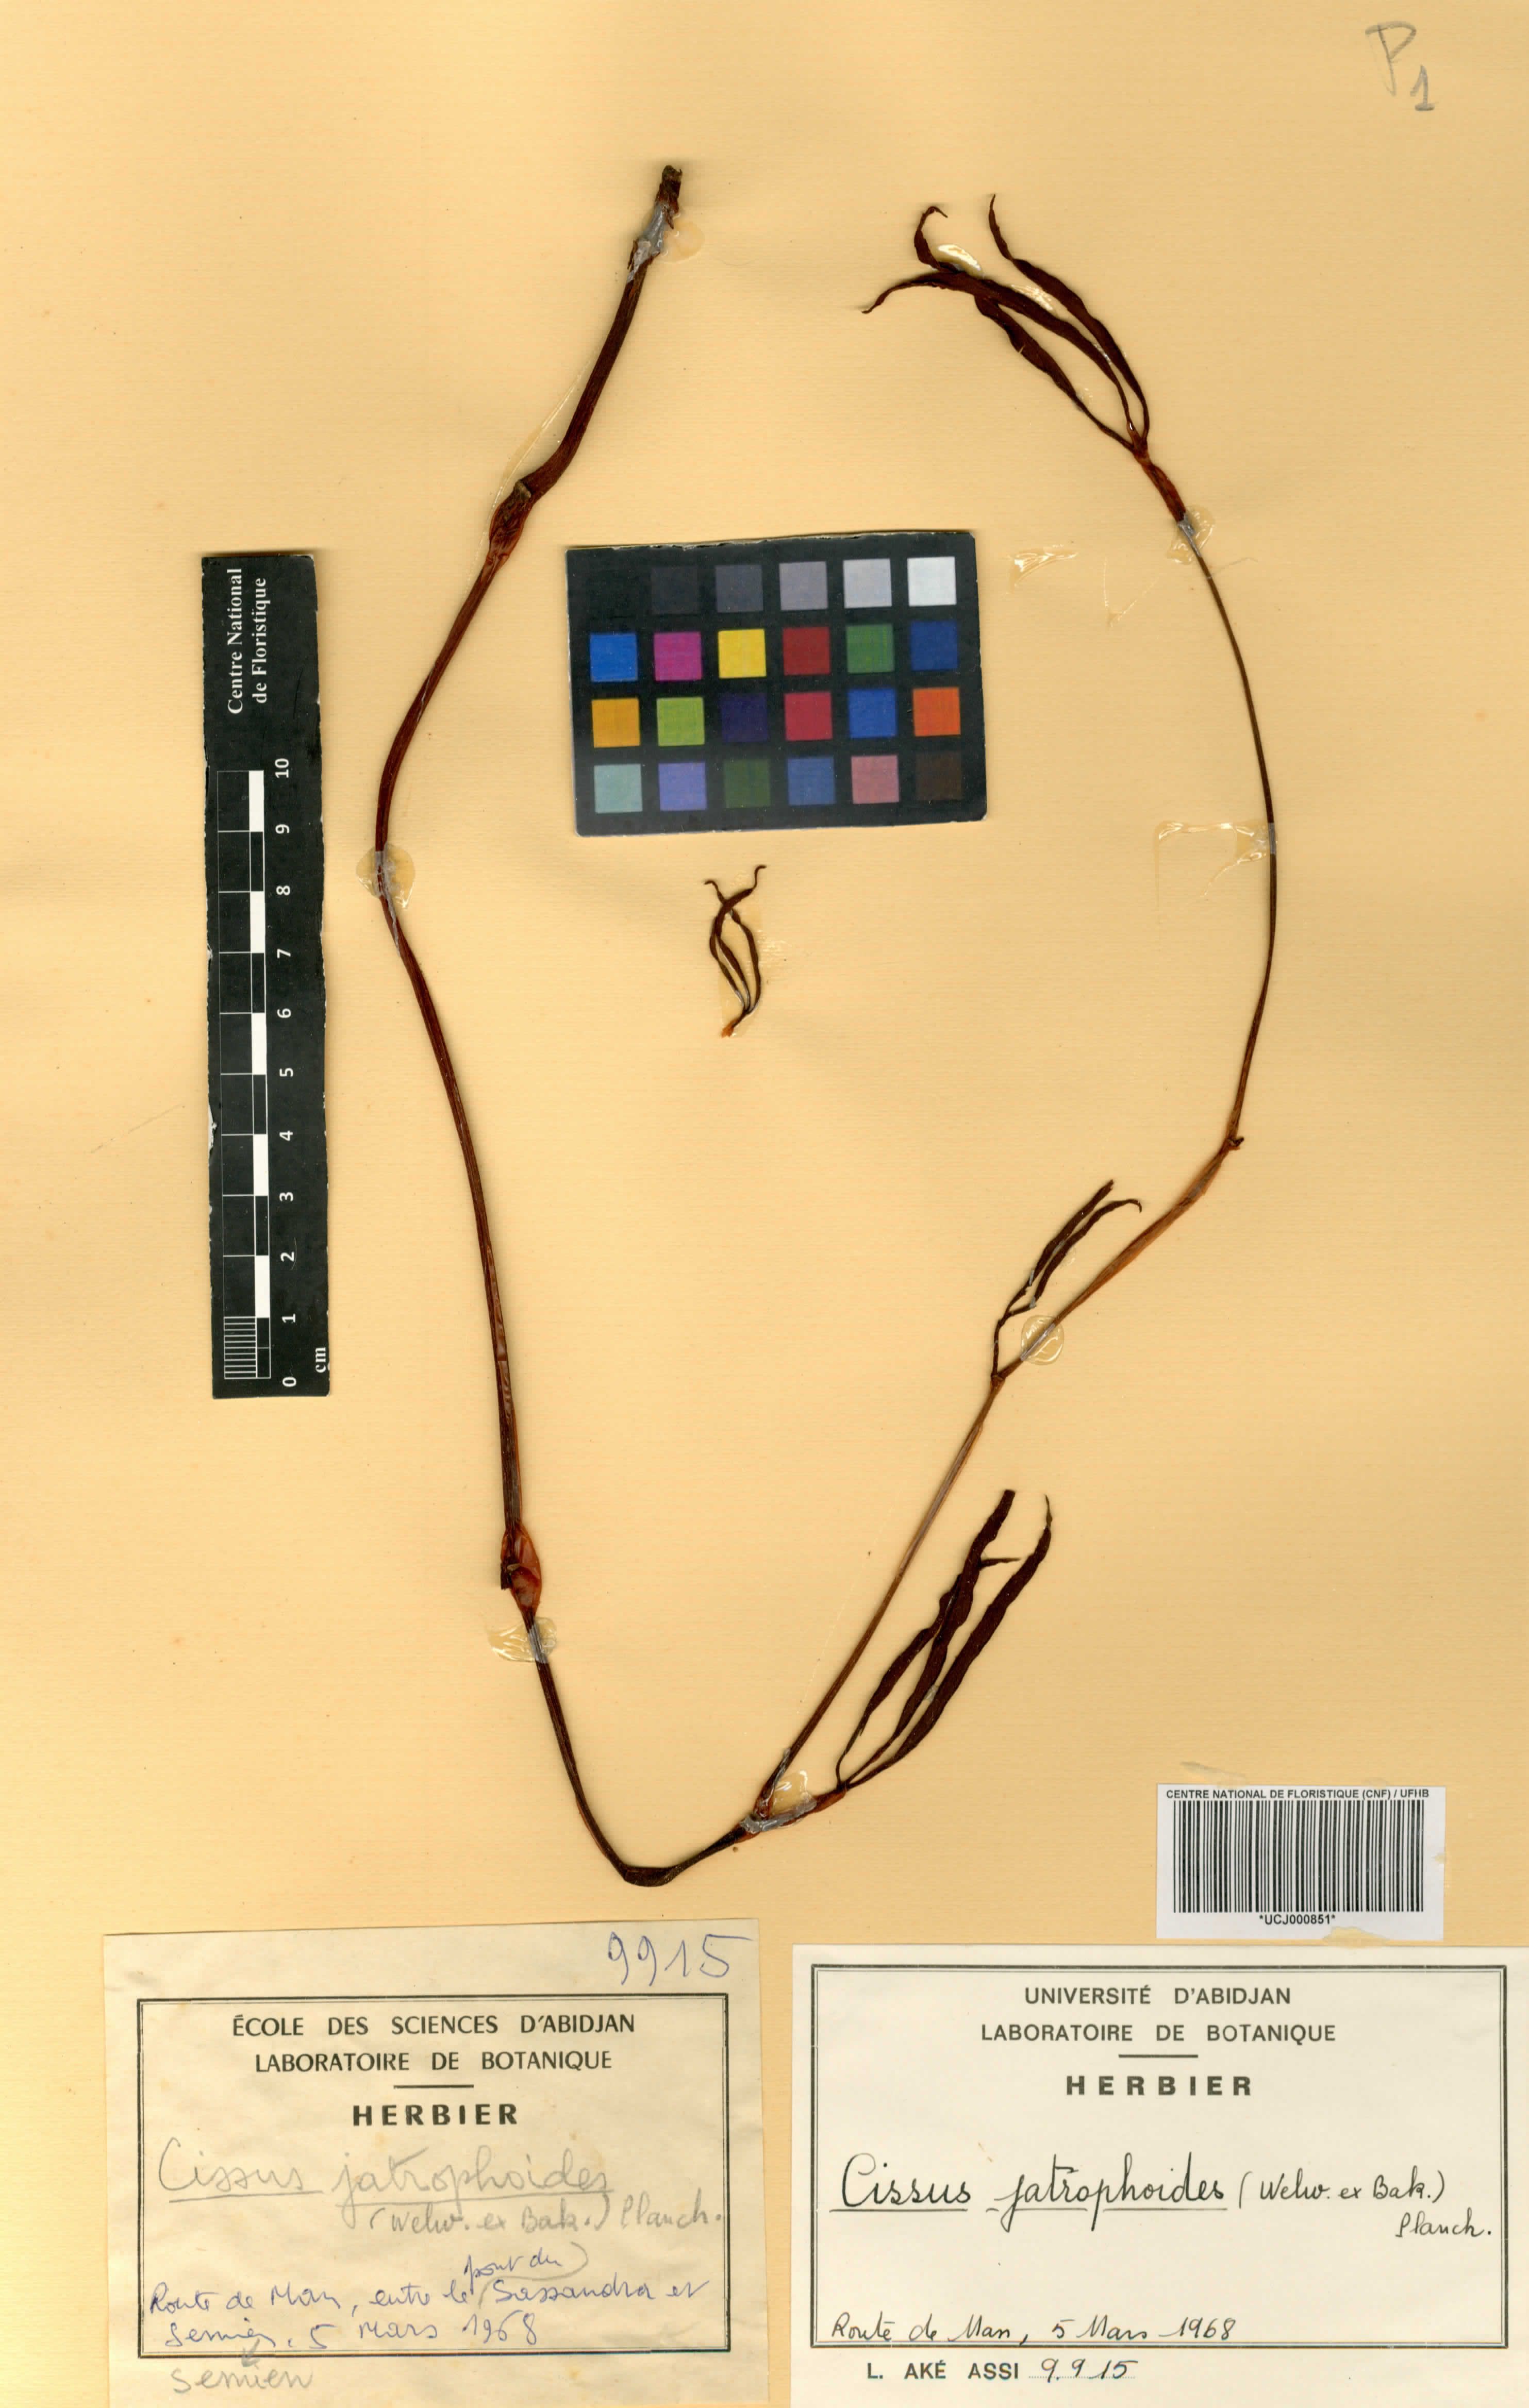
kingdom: Plantae
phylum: Tracheophyta
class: Magnoliopsida
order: Vitales
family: Vitaceae
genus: Cyphostemma
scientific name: Cyphostemma junceum
